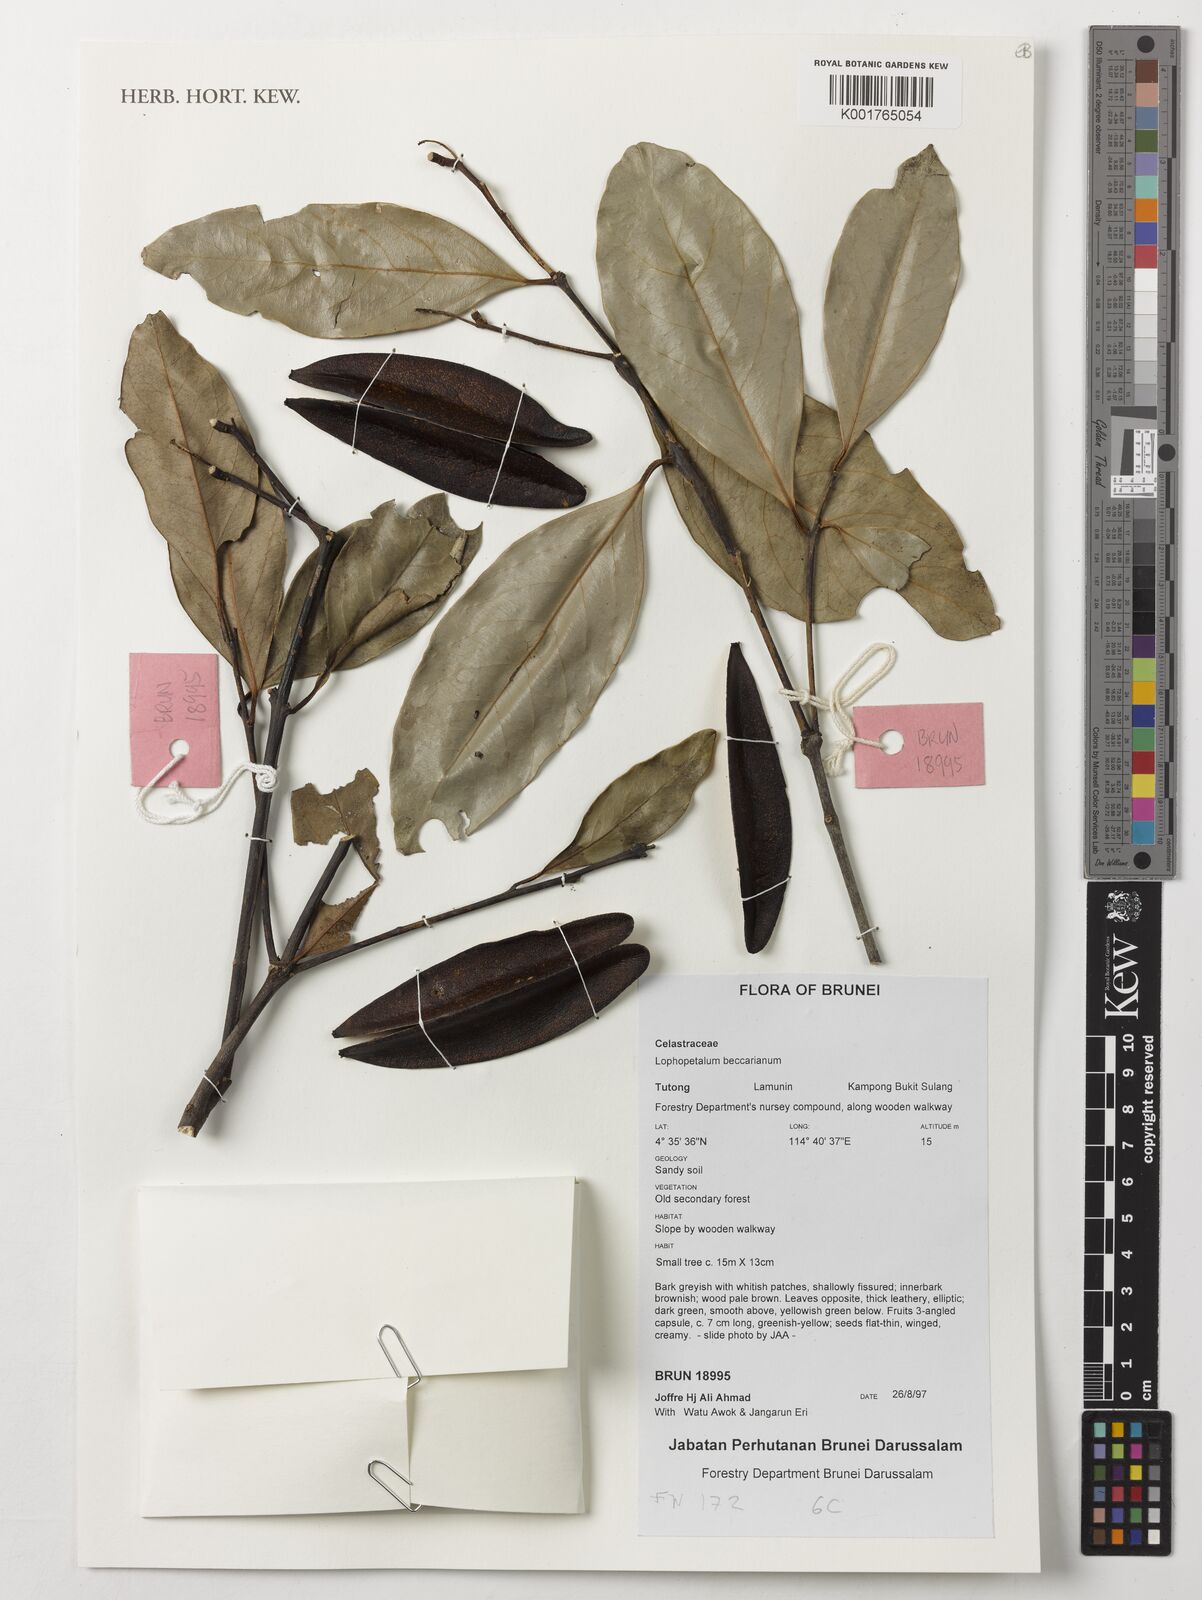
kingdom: Plantae
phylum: Tracheophyta
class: Magnoliopsida
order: Celastrales
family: Celastraceae
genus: Lophopetalum
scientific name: Lophopetalum beccarianum
